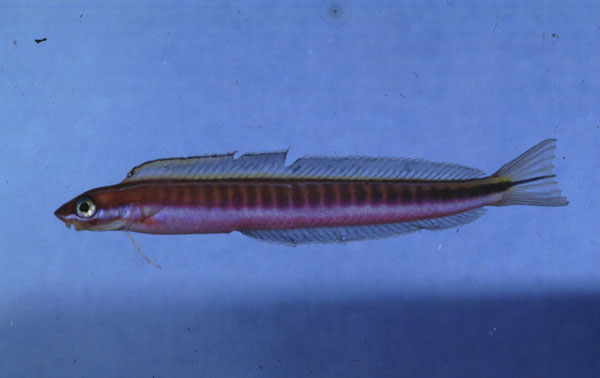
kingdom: Animalia
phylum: Chordata
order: Perciformes
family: Blenniidae
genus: Plagiotremus
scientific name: Plagiotremus tapeinosoma
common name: Hit and run blenny
